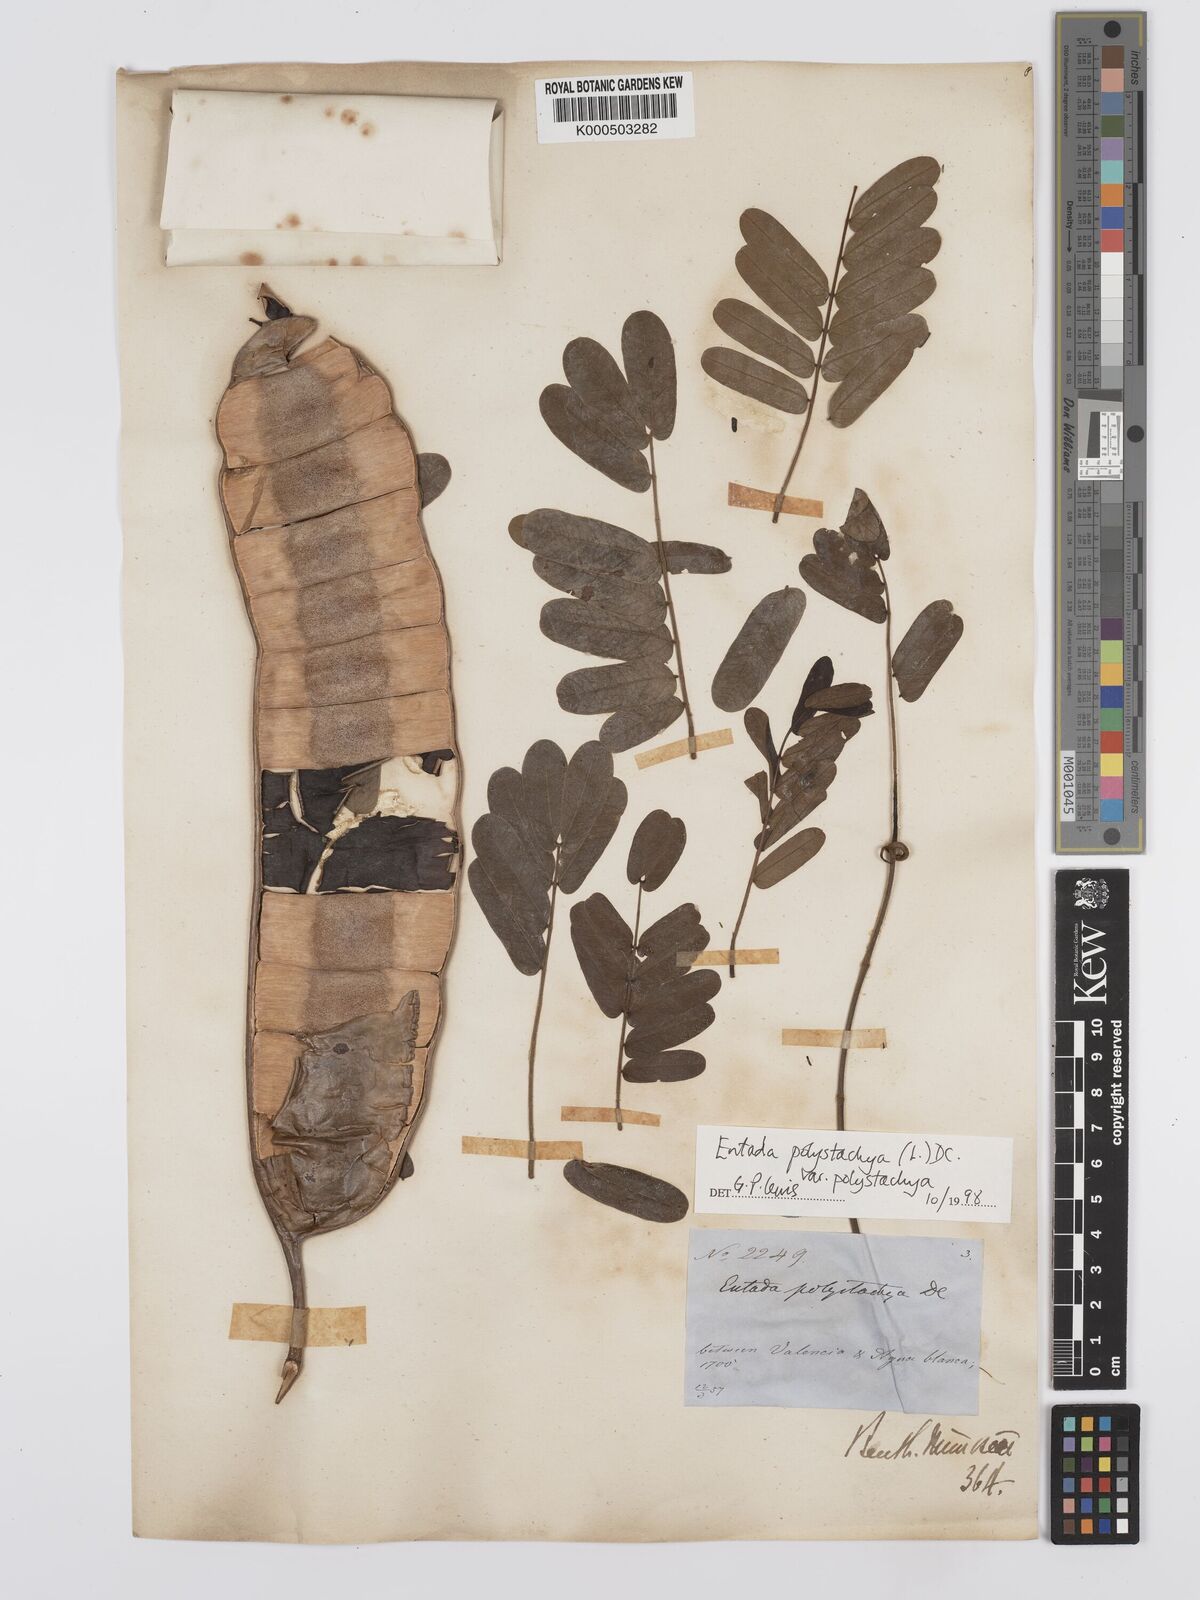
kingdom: Plantae
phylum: Tracheophyta
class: Magnoliopsida
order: Fabales
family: Fabaceae
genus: Entada
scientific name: Entada polystachya
